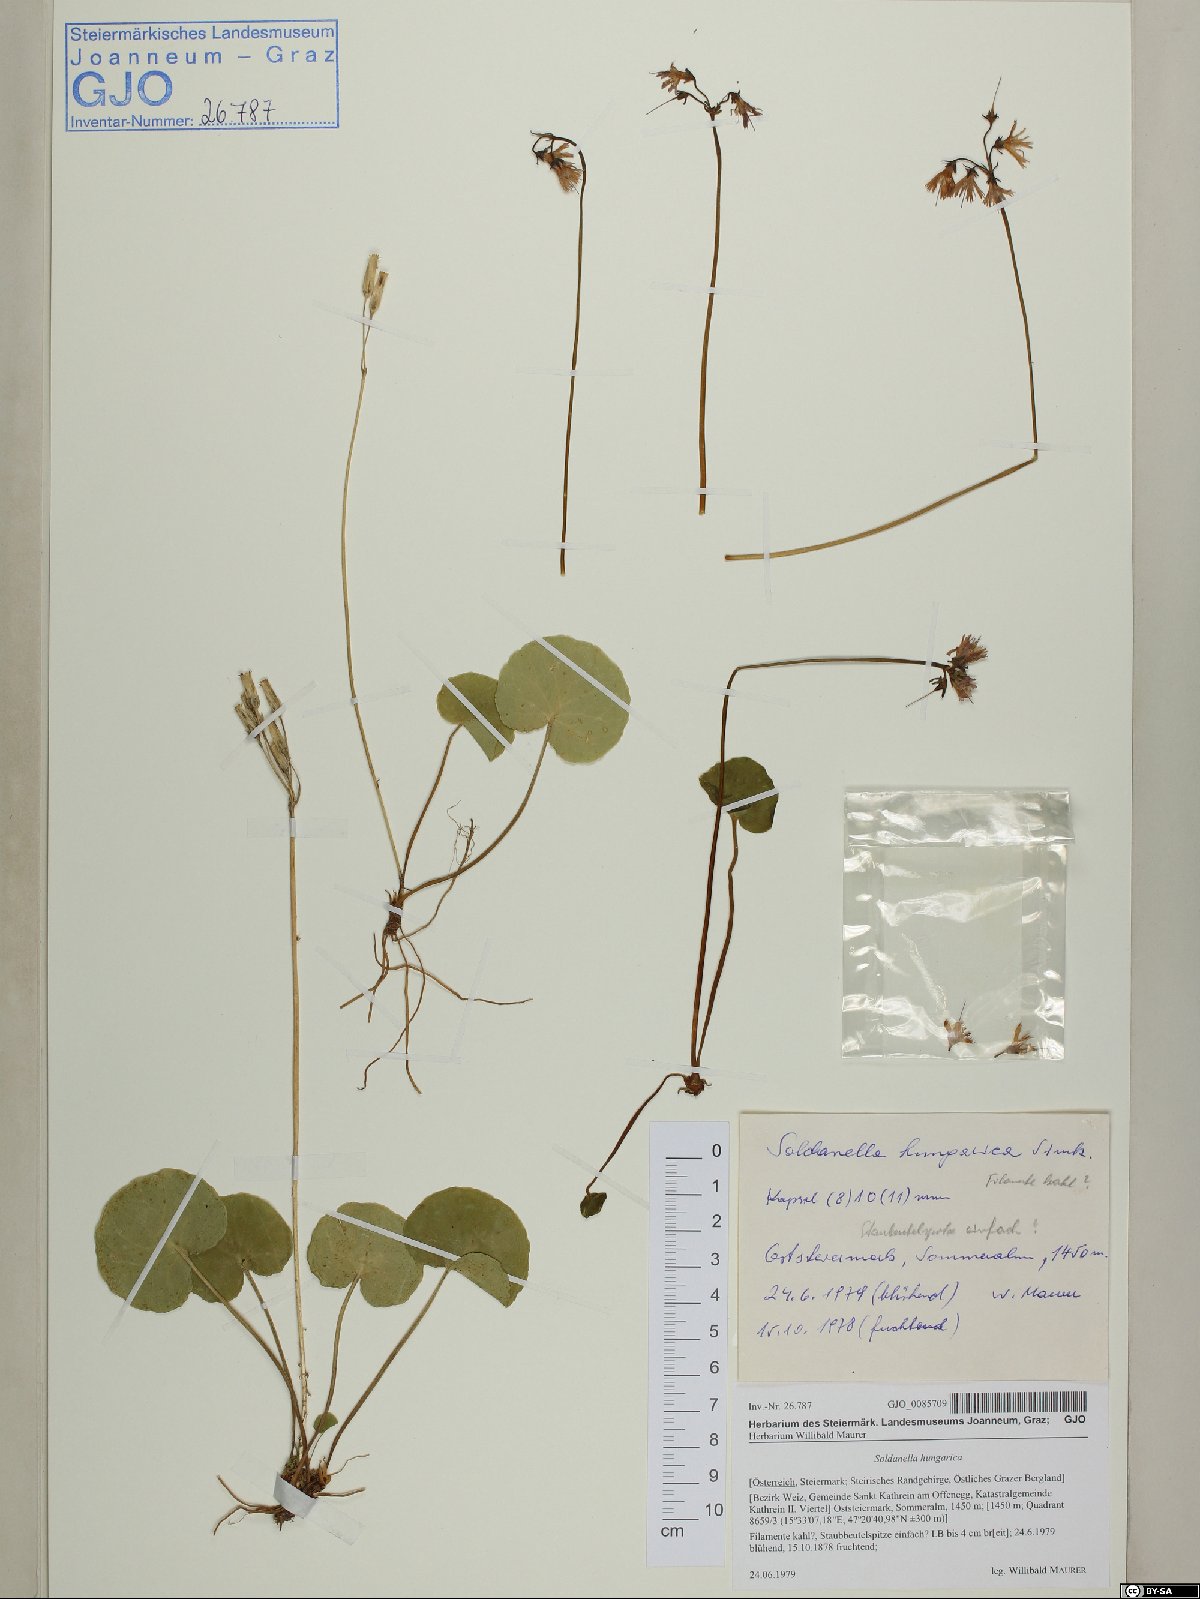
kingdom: Plantae
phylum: Tracheophyta
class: Magnoliopsida
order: Ericales
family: Primulaceae
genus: Soldanella
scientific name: Soldanella hungarica
